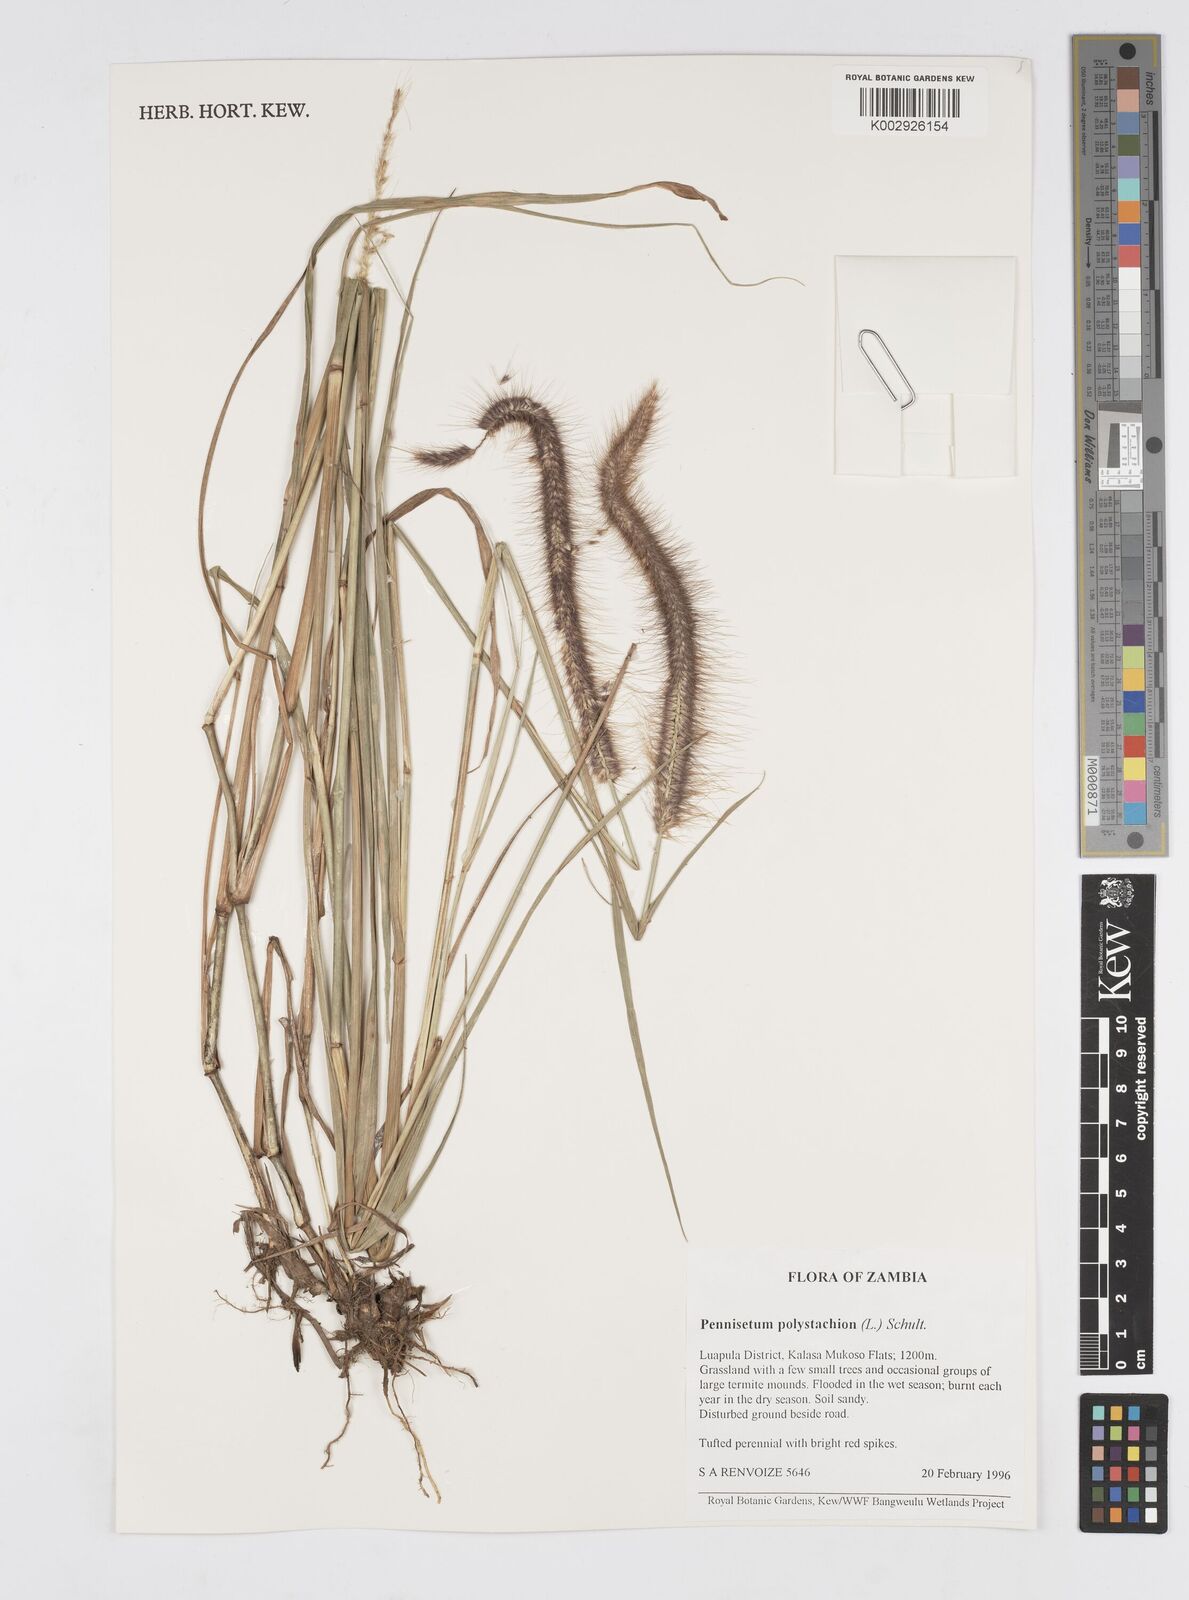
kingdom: Plantae
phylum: Tracheophyta
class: Liliopsida
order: Poales
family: Poaceae
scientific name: Poaceae
